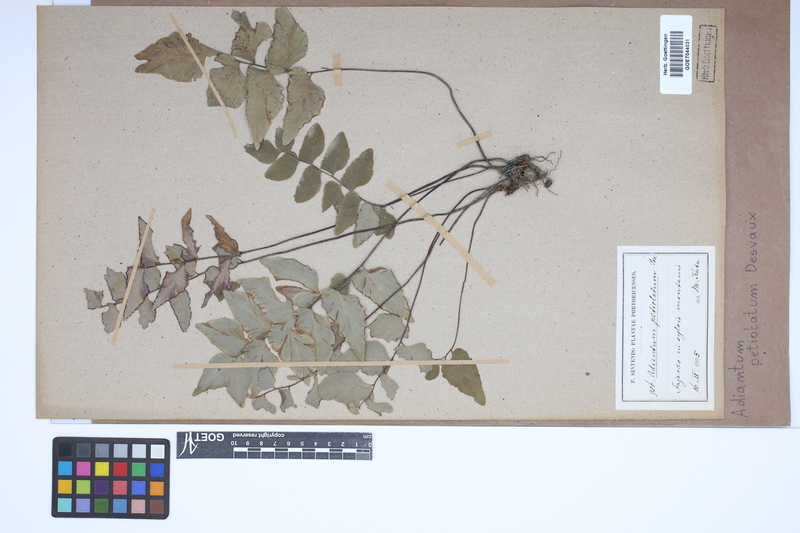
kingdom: Plantae
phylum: Tracheophyta
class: Polypodiopsida
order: Polypodiales
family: Pteridaceae
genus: Adiantum
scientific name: Adiantum petiolatum
